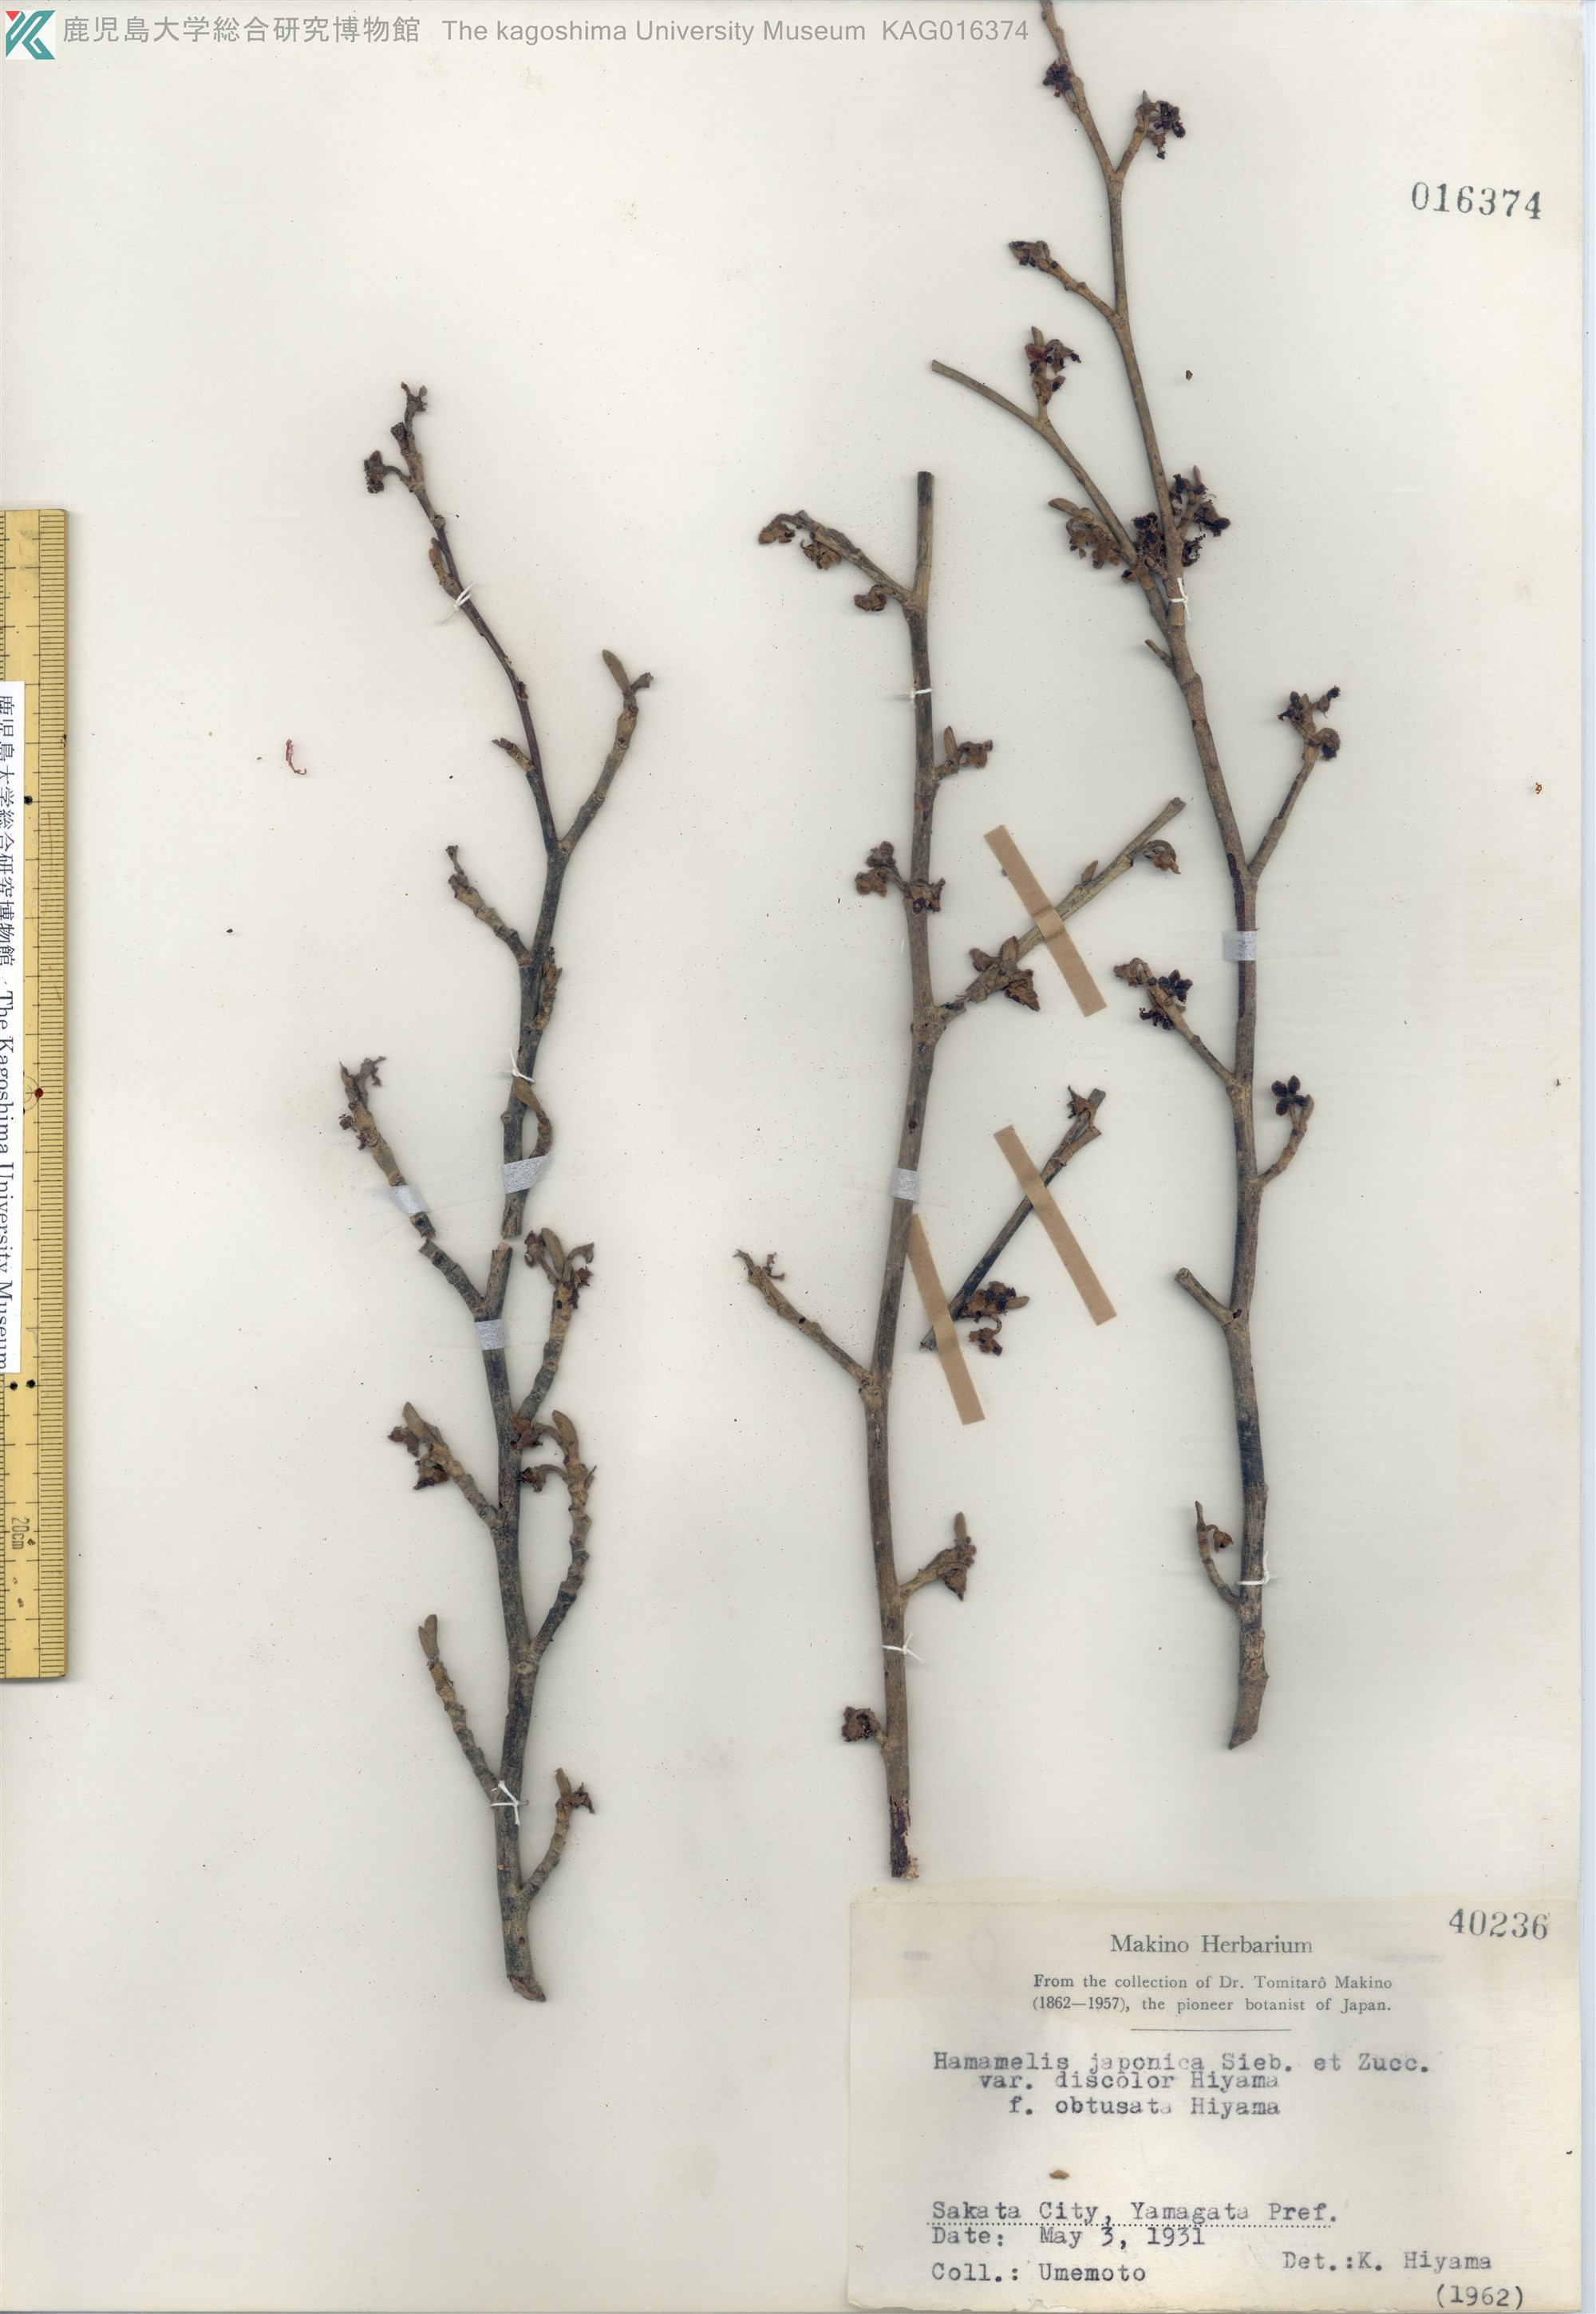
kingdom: Plantae
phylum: Tracheophyta
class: Magnoliopsida
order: Saxifragales
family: Hamamelidaceae
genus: Hamamelis
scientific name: Hamamelis japonica
